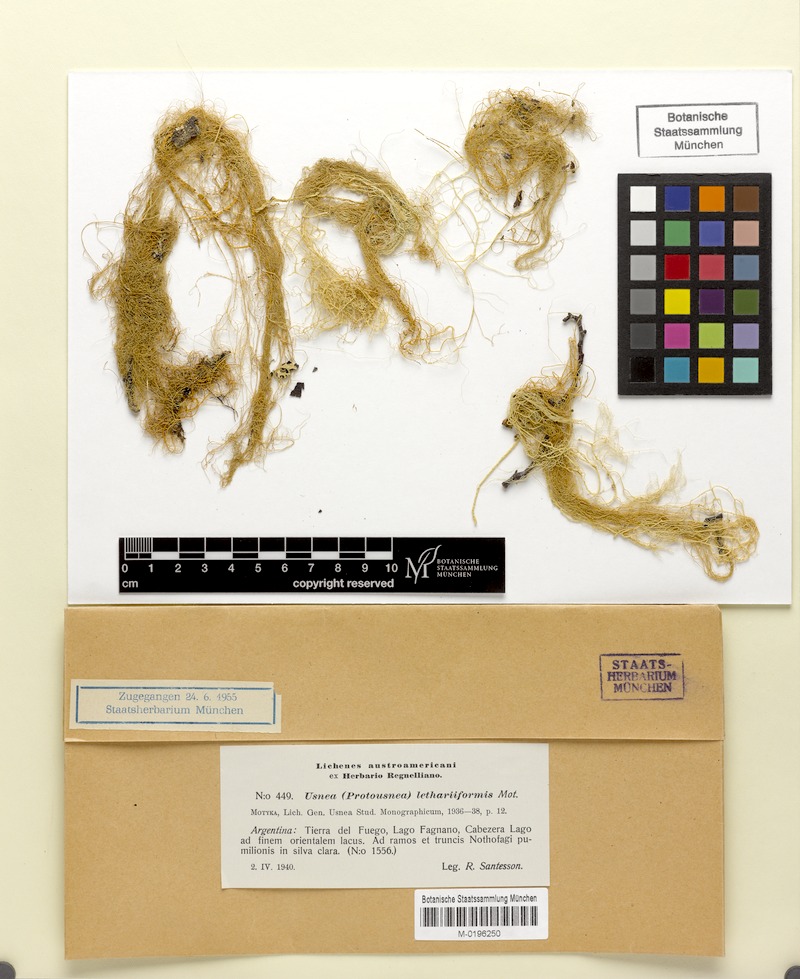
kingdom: Fungi
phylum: Ascomycota
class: Lecanoromycetes
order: Lecanorales
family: Parmeliaceae
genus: Usnea
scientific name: Usnea lethariiformis
